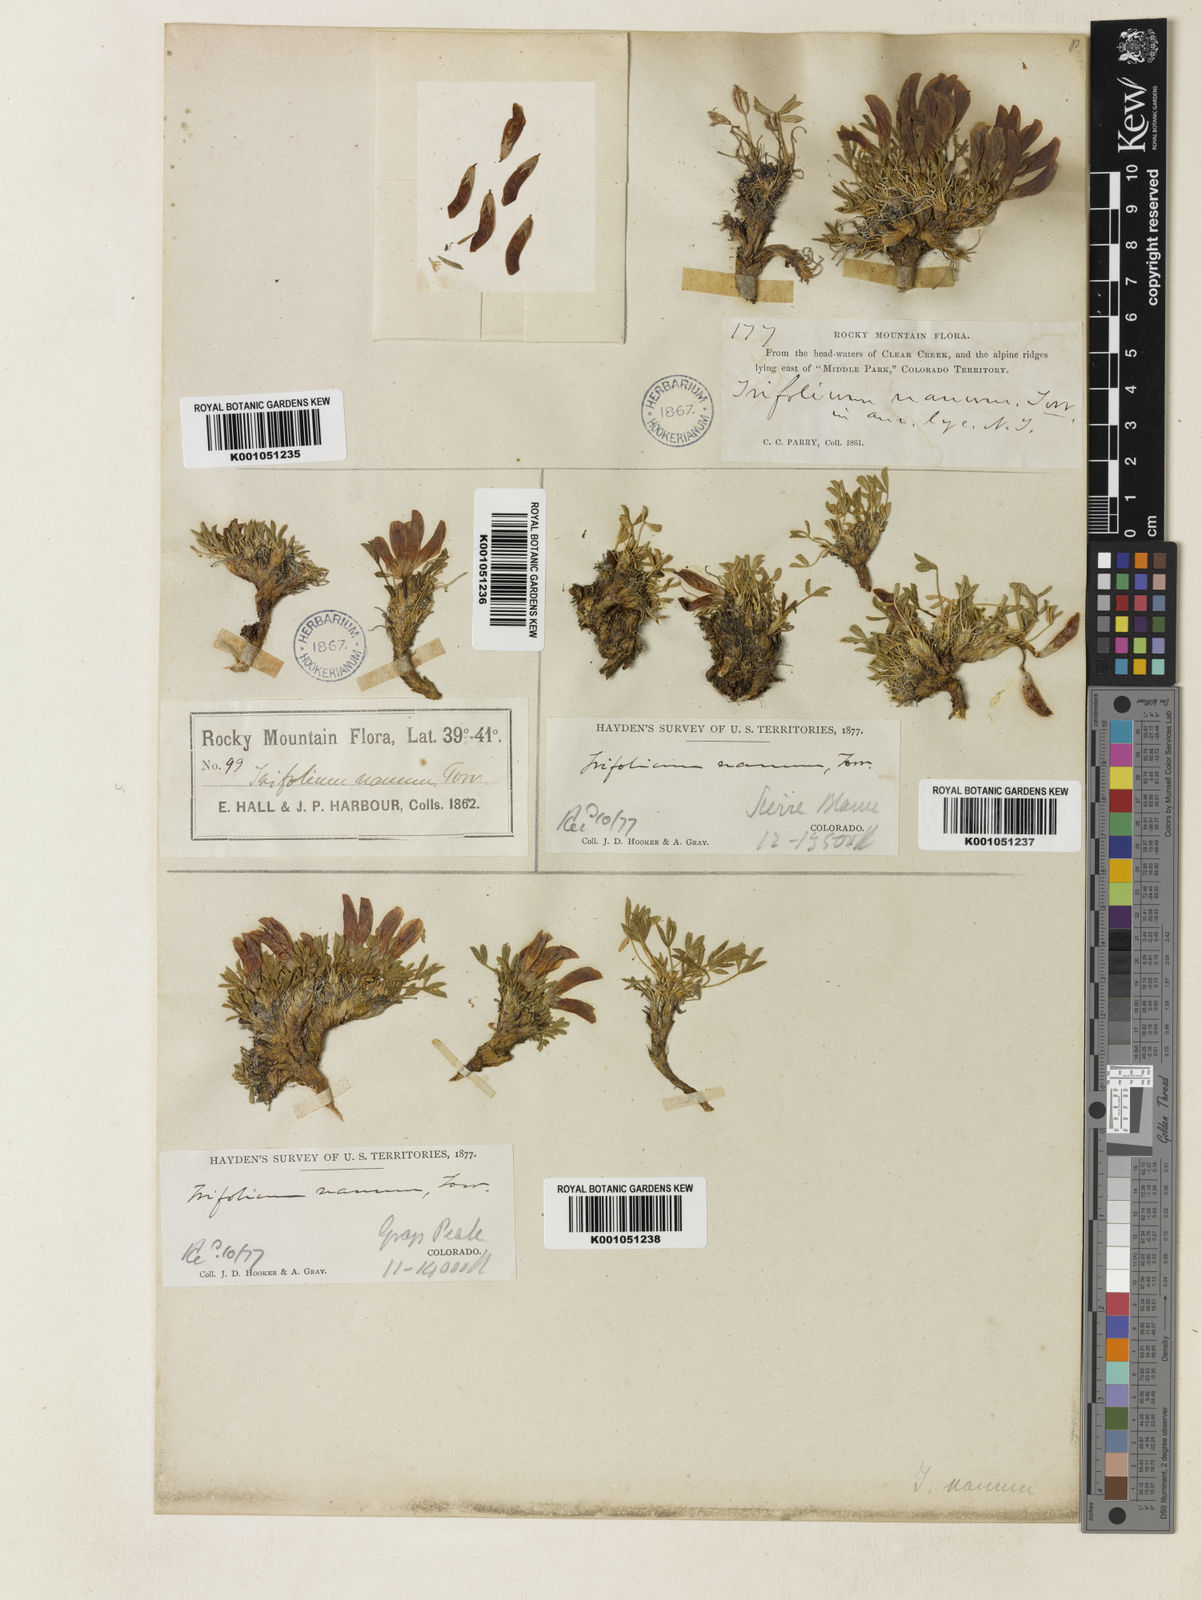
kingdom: Plantae
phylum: Tracheophyta
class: Magnoliopsida
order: Fabales
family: Fabaceae
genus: Trifolium
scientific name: Trifolium nanum
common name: Tundra clover
